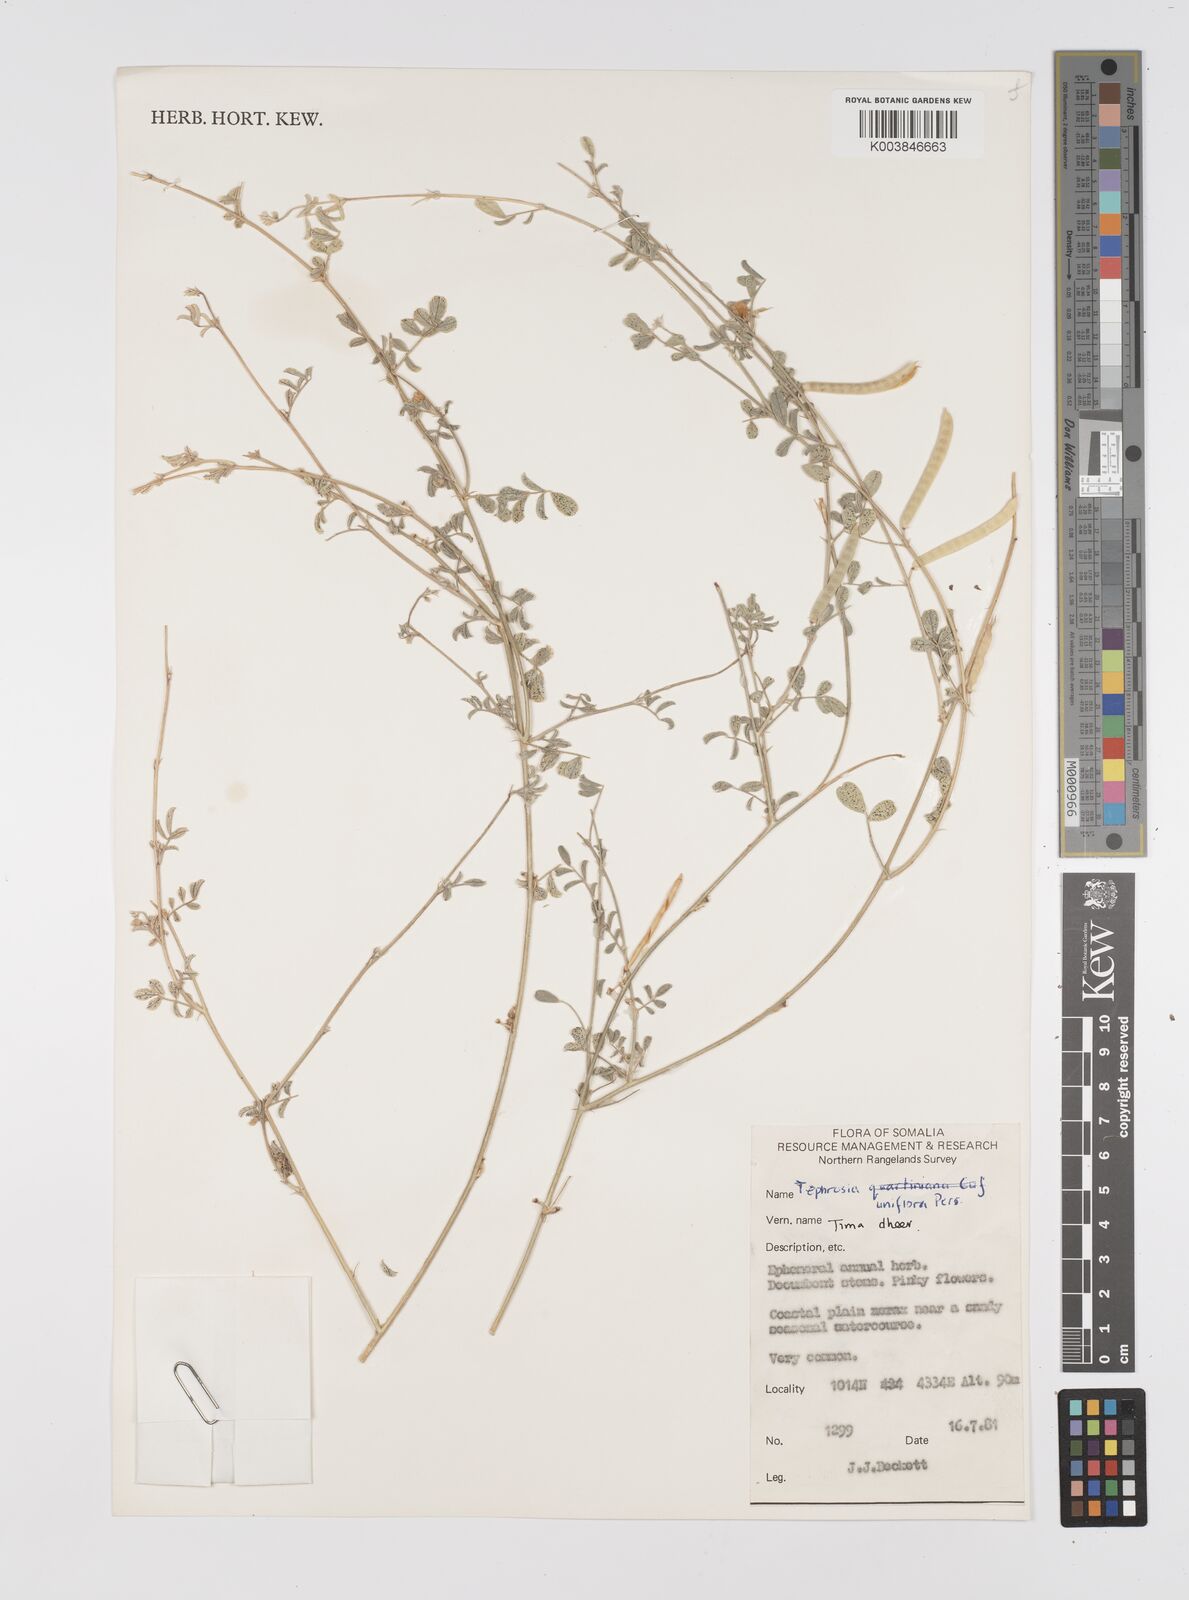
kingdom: Plantae
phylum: Tracheophyta
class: Magnoliopsida
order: Fabales
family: Fabaceae
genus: Tephrosia
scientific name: Tephrosia uniflora
